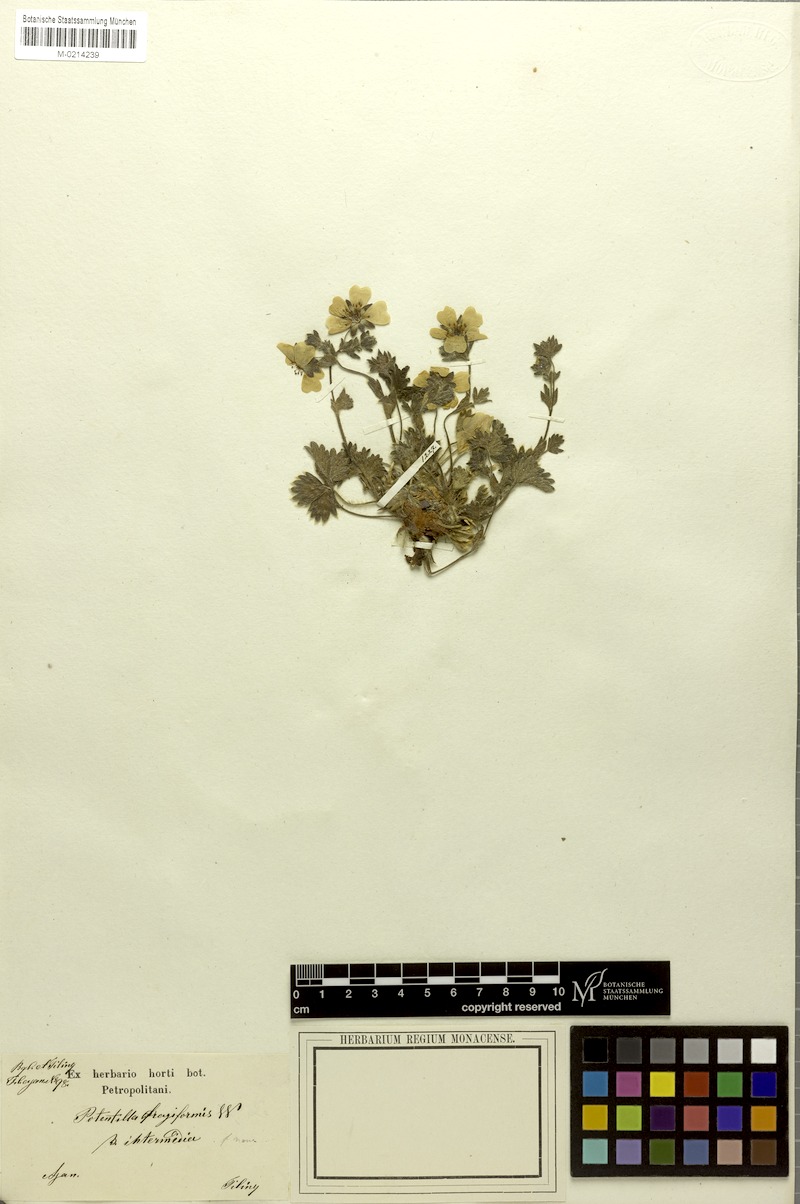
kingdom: Plantae
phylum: Tracheophyta
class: Magnoliopsida
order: Rosales
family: Rosaceae
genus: Potentilla
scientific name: Potentilla fragiformis
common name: Strawberry cinquefoil
